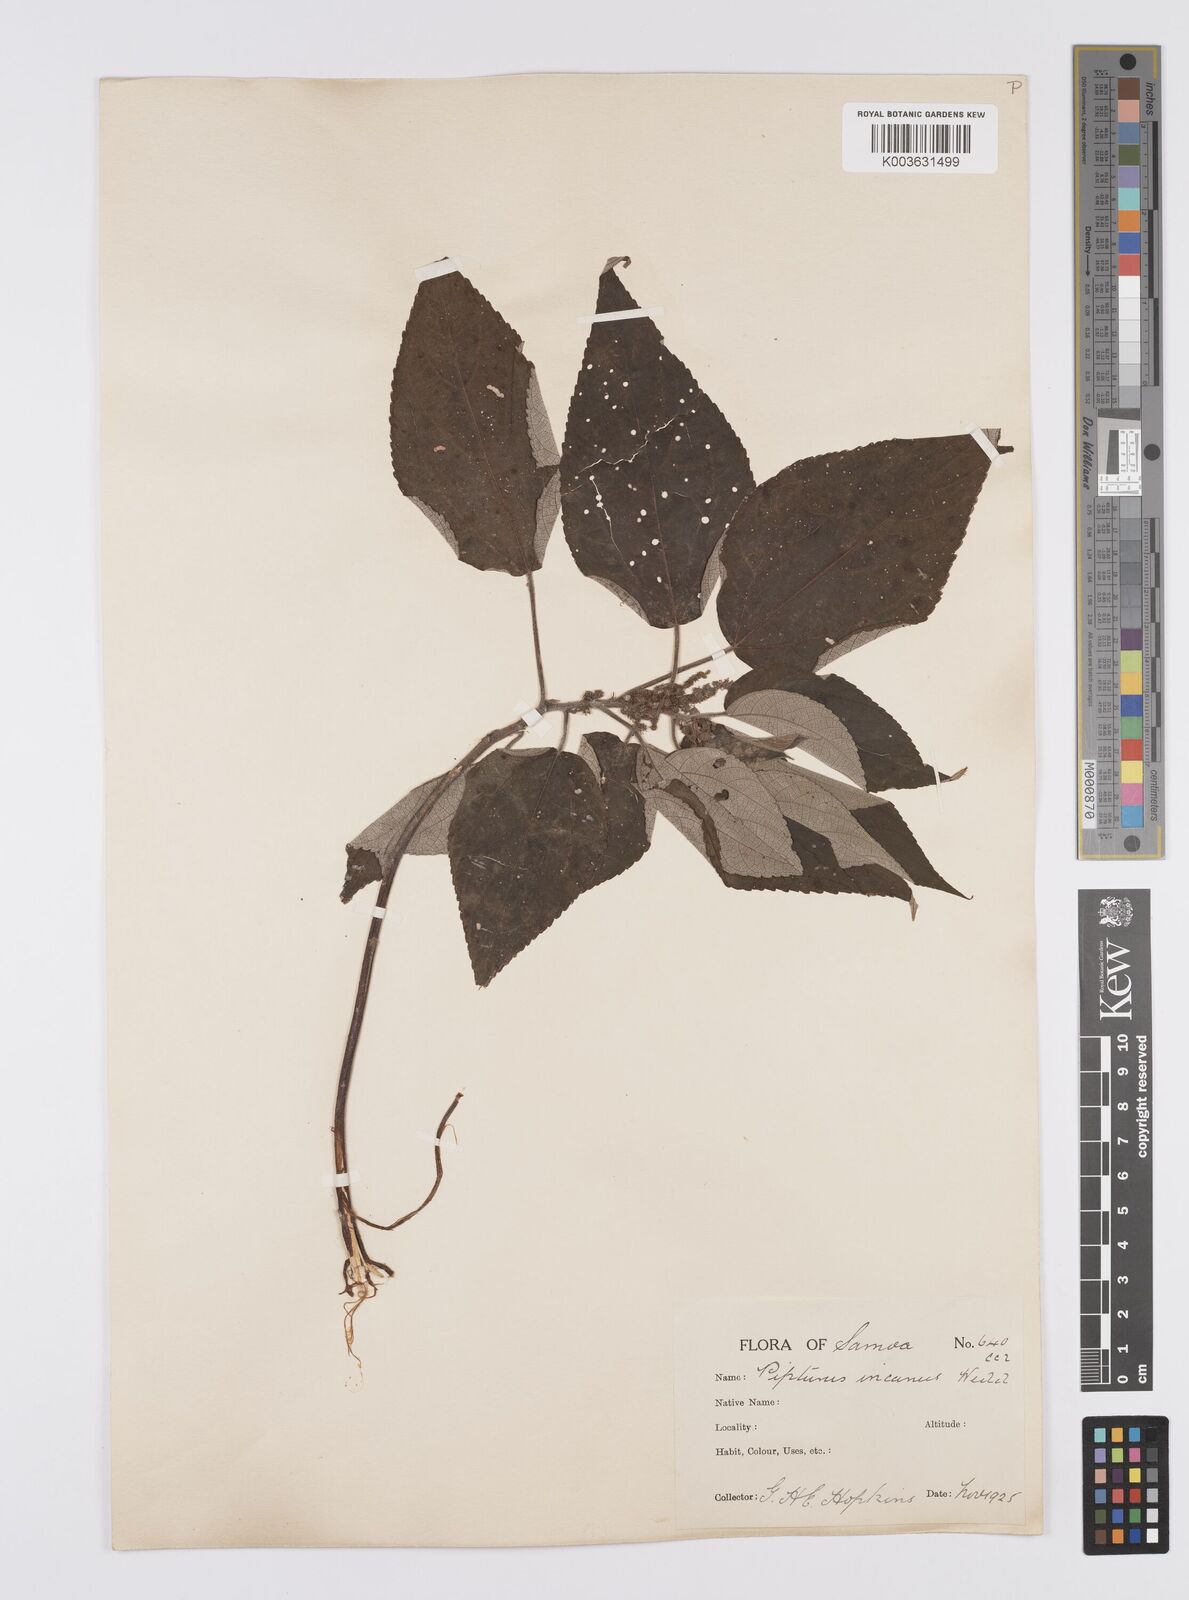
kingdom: Plantae
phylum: Tracheophyta
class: Magnoliopsida
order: Rosales
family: Urticaceae
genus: Pipturus
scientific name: Pipturus argenteus
